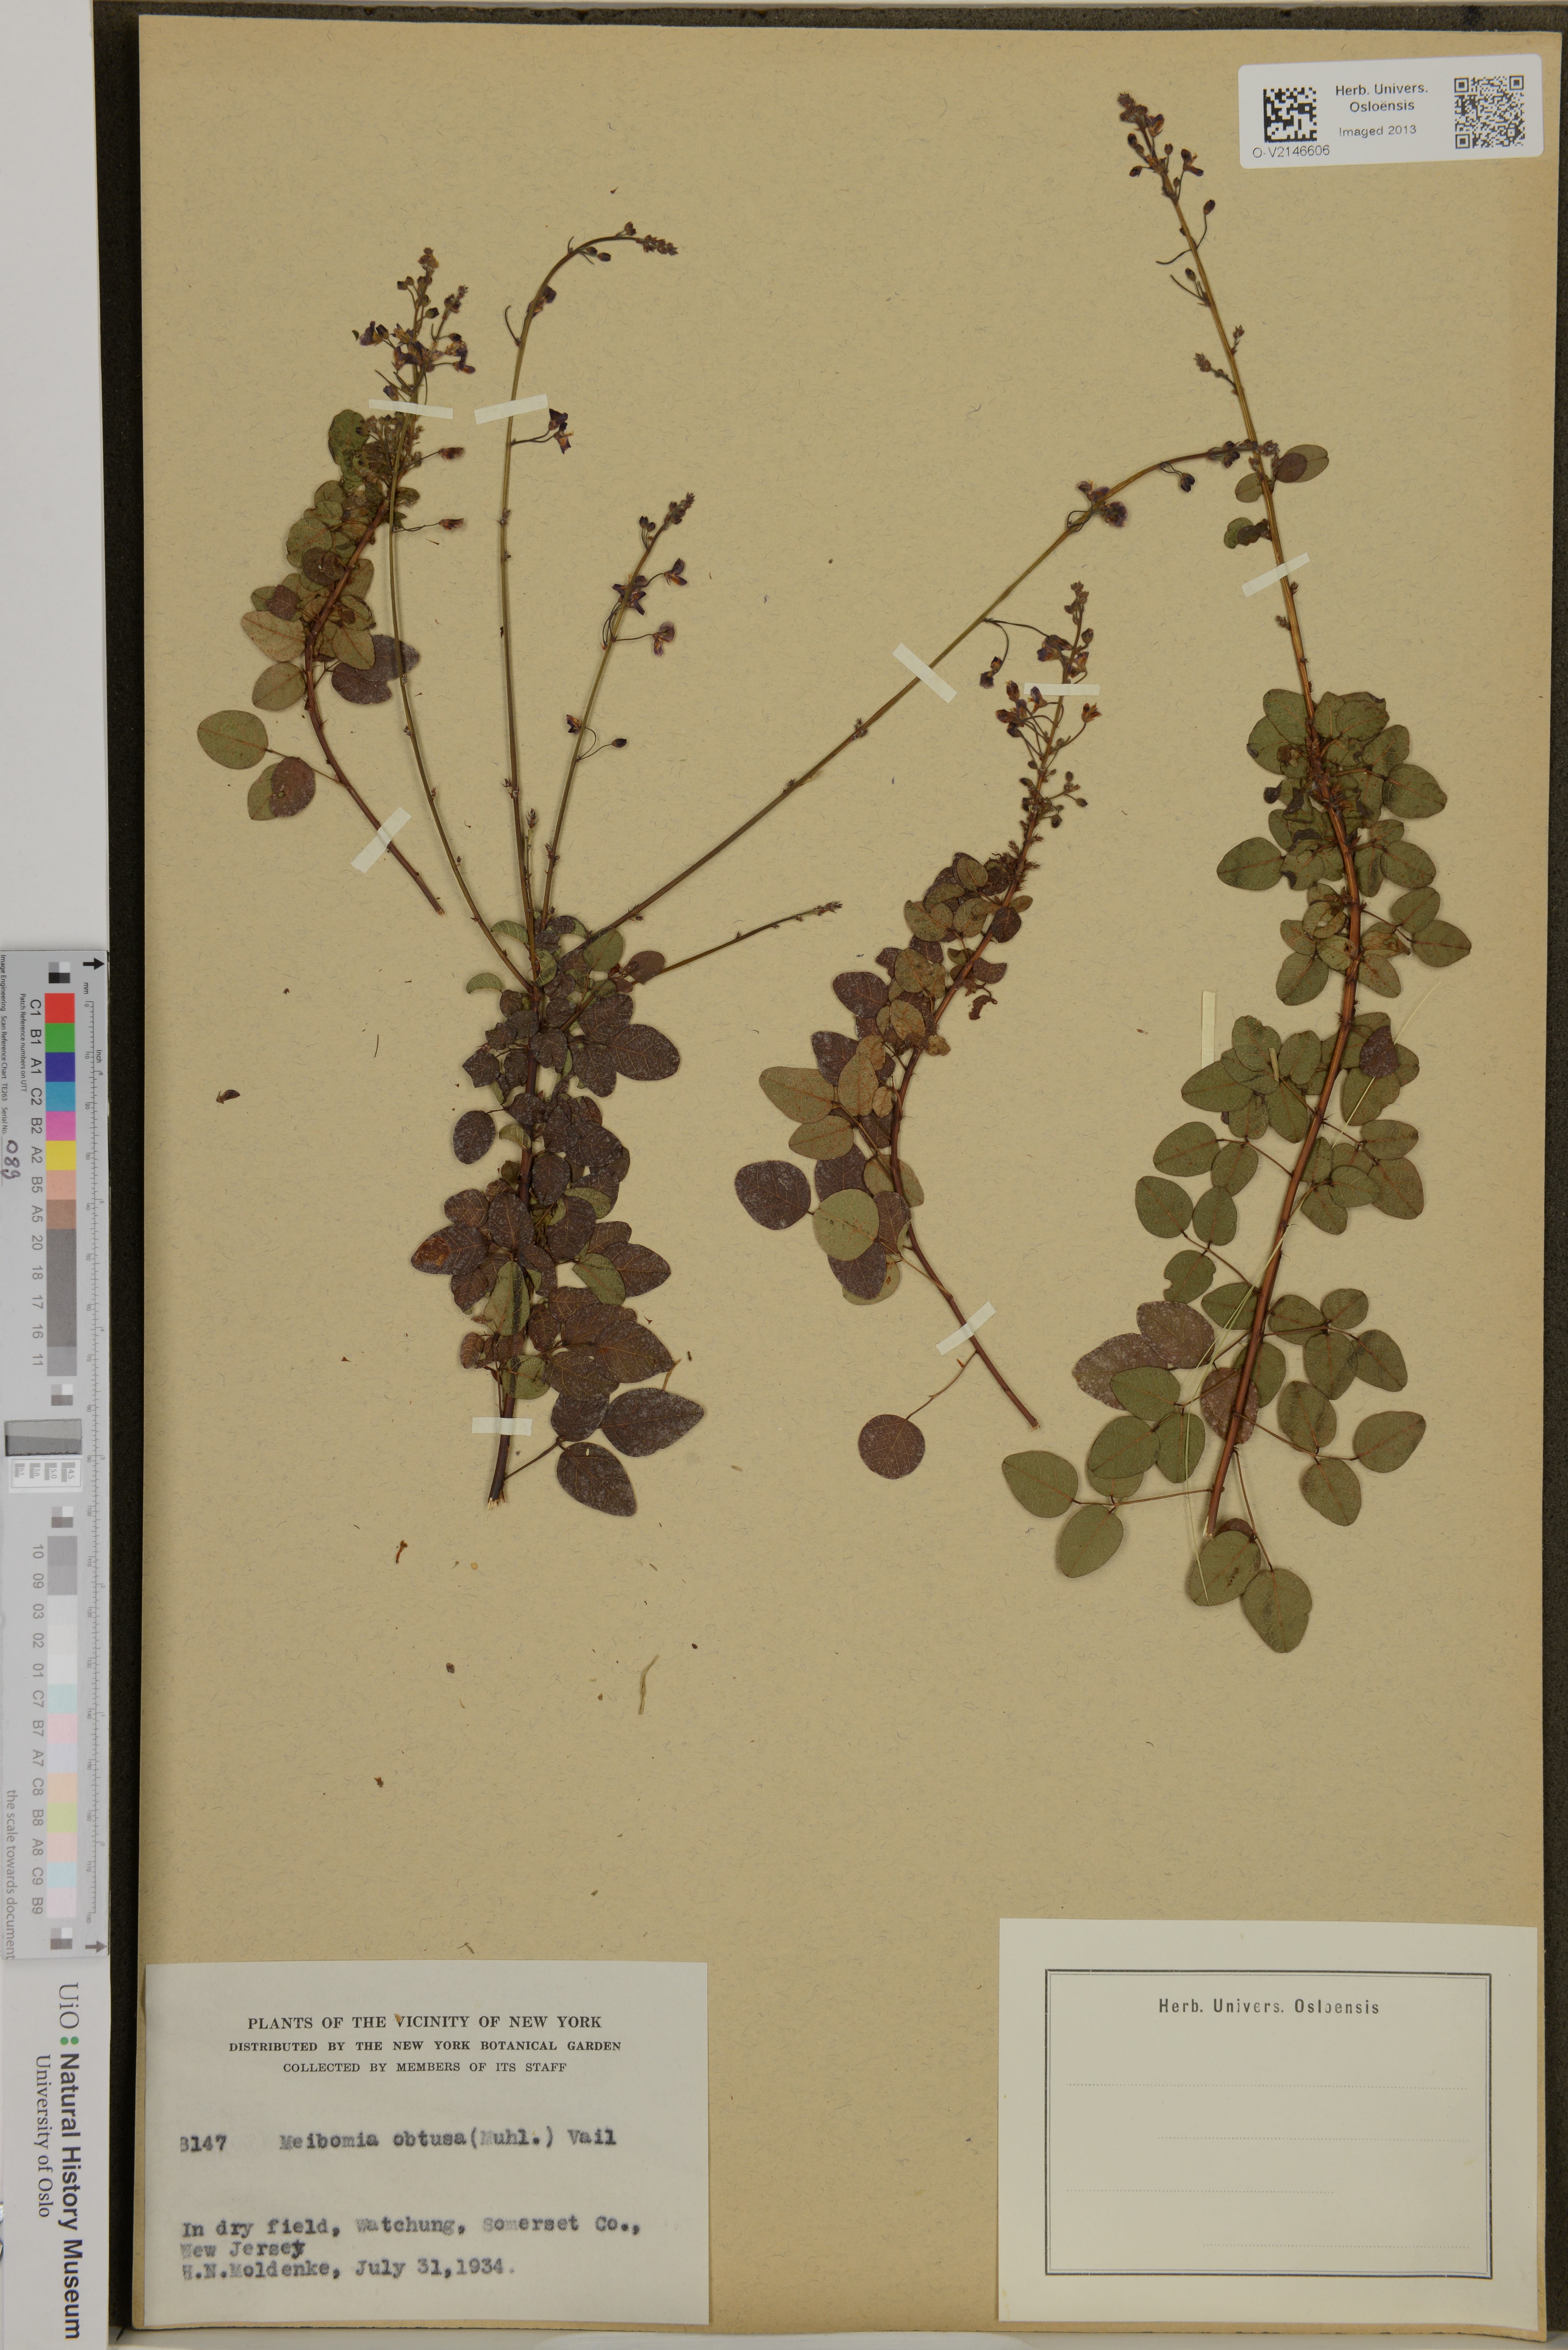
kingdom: Plantae
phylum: Tracheophyta
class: Magnoliopsida
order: Fabales
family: Fabaceae
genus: Desmodium
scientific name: Desmodium obtusum
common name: Stiff tick trefoil
